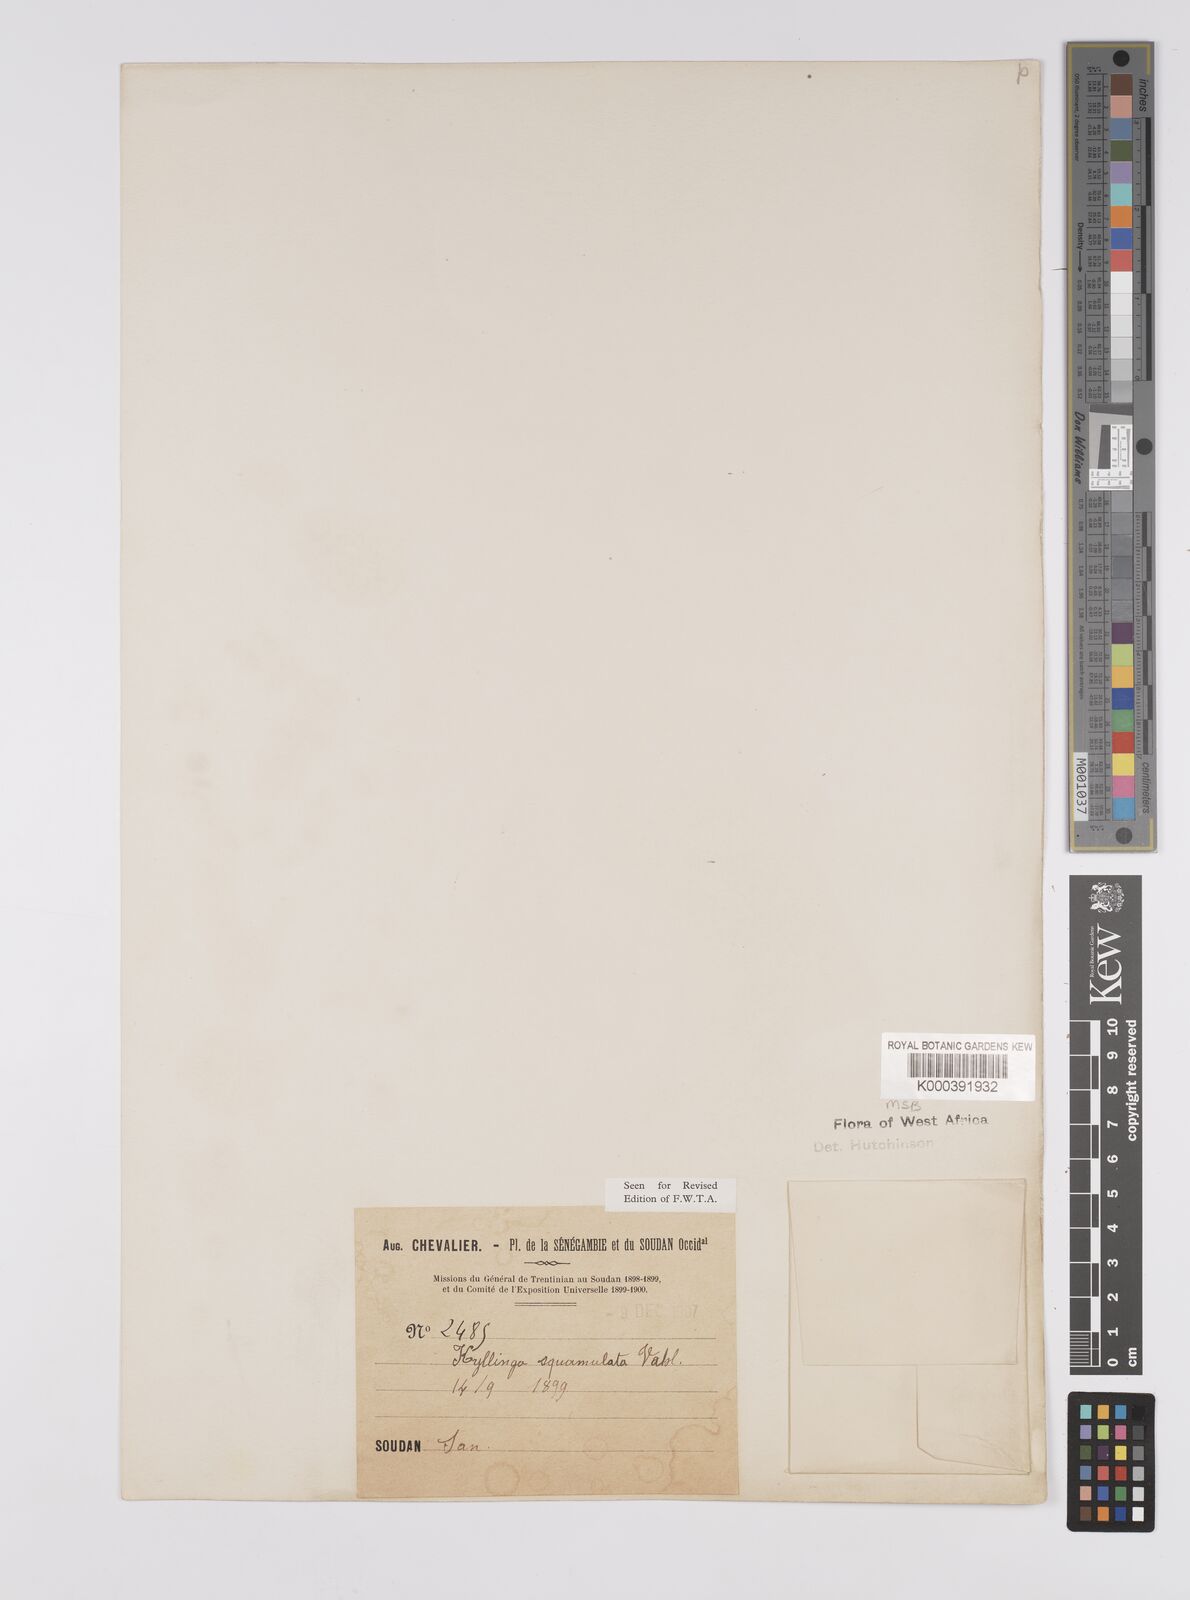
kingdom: Plantae
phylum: Tracheophyta
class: Liliopsida
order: Poales
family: Cyperaceae
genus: Cyperus
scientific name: Cyperus metzii
